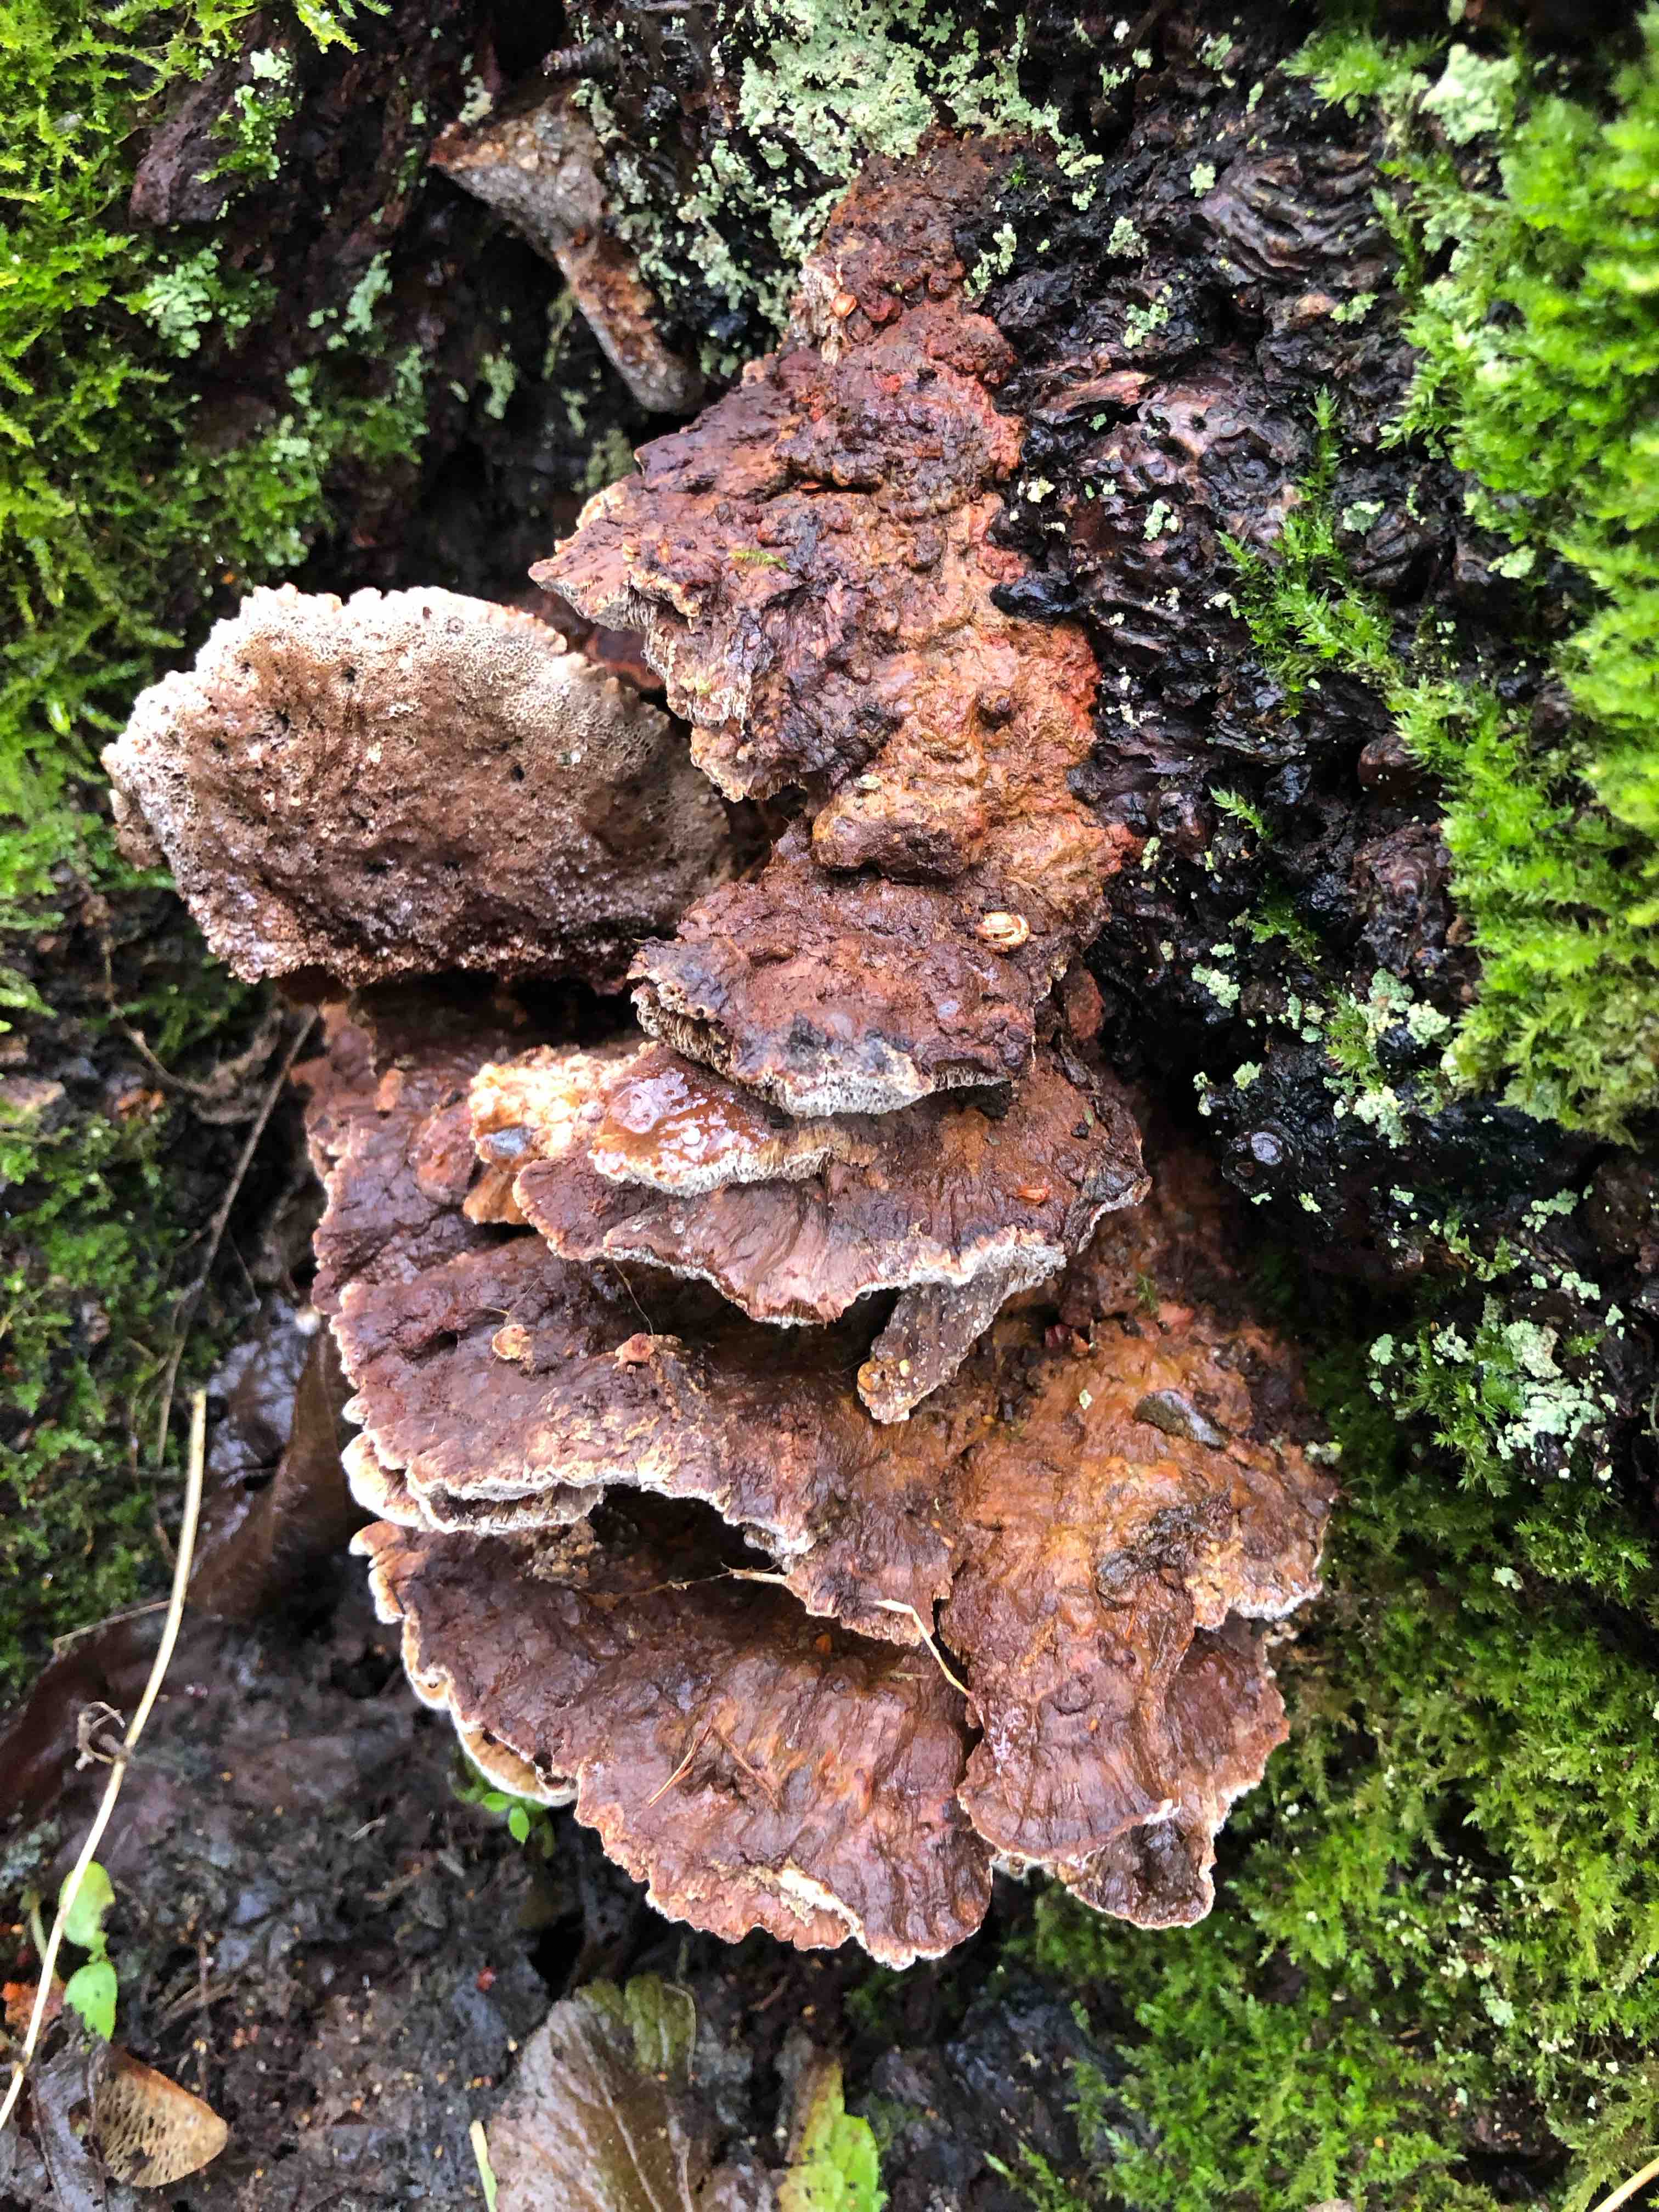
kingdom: Fungi
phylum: Basidiomycota
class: Agaricomycetes
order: Hymenochaetales
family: Hymenochaetaceae
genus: Xanthoporia
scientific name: Xanthoporia radiata
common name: elle-spejlporesvamp
